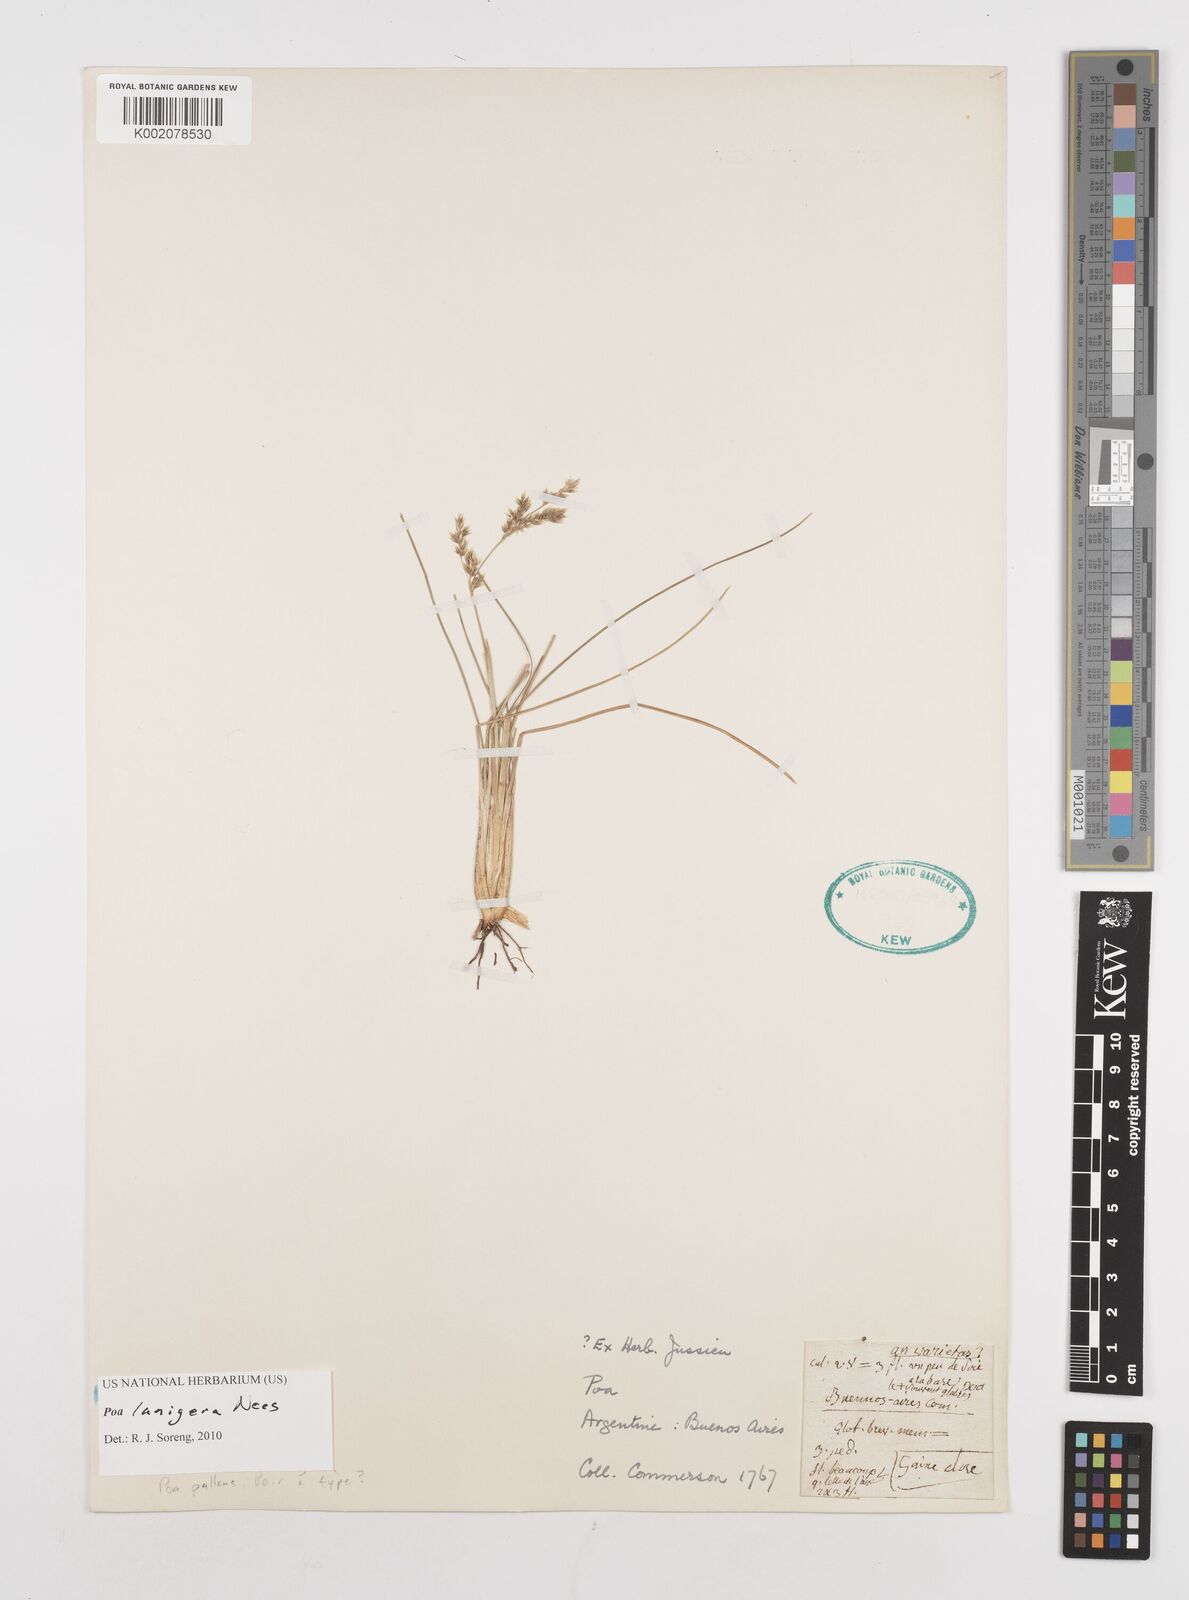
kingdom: Plantae
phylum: Tracheophyta
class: Liliopsida
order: Poales
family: Poaceae
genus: Poa
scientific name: Poa lanigera
